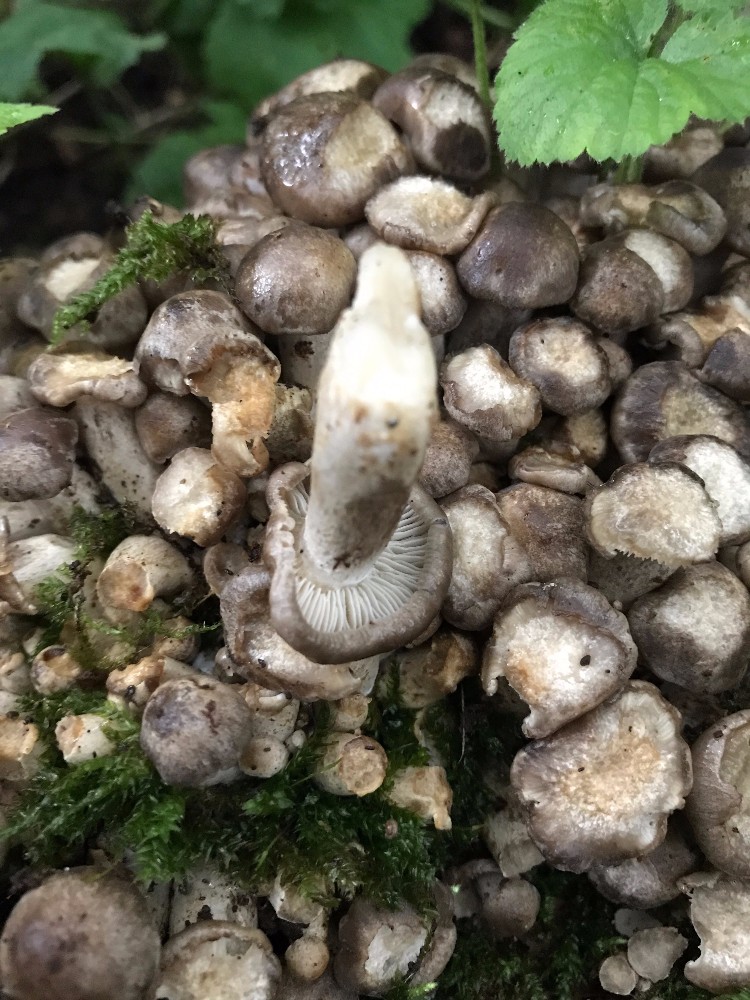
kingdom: Fungi
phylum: Basidiomycota
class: Agaricomycetes
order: Agaricales
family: Lyophyllaceae
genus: Lyophyllum
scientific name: Lyophyllum decastes
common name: røggrå gråblad
